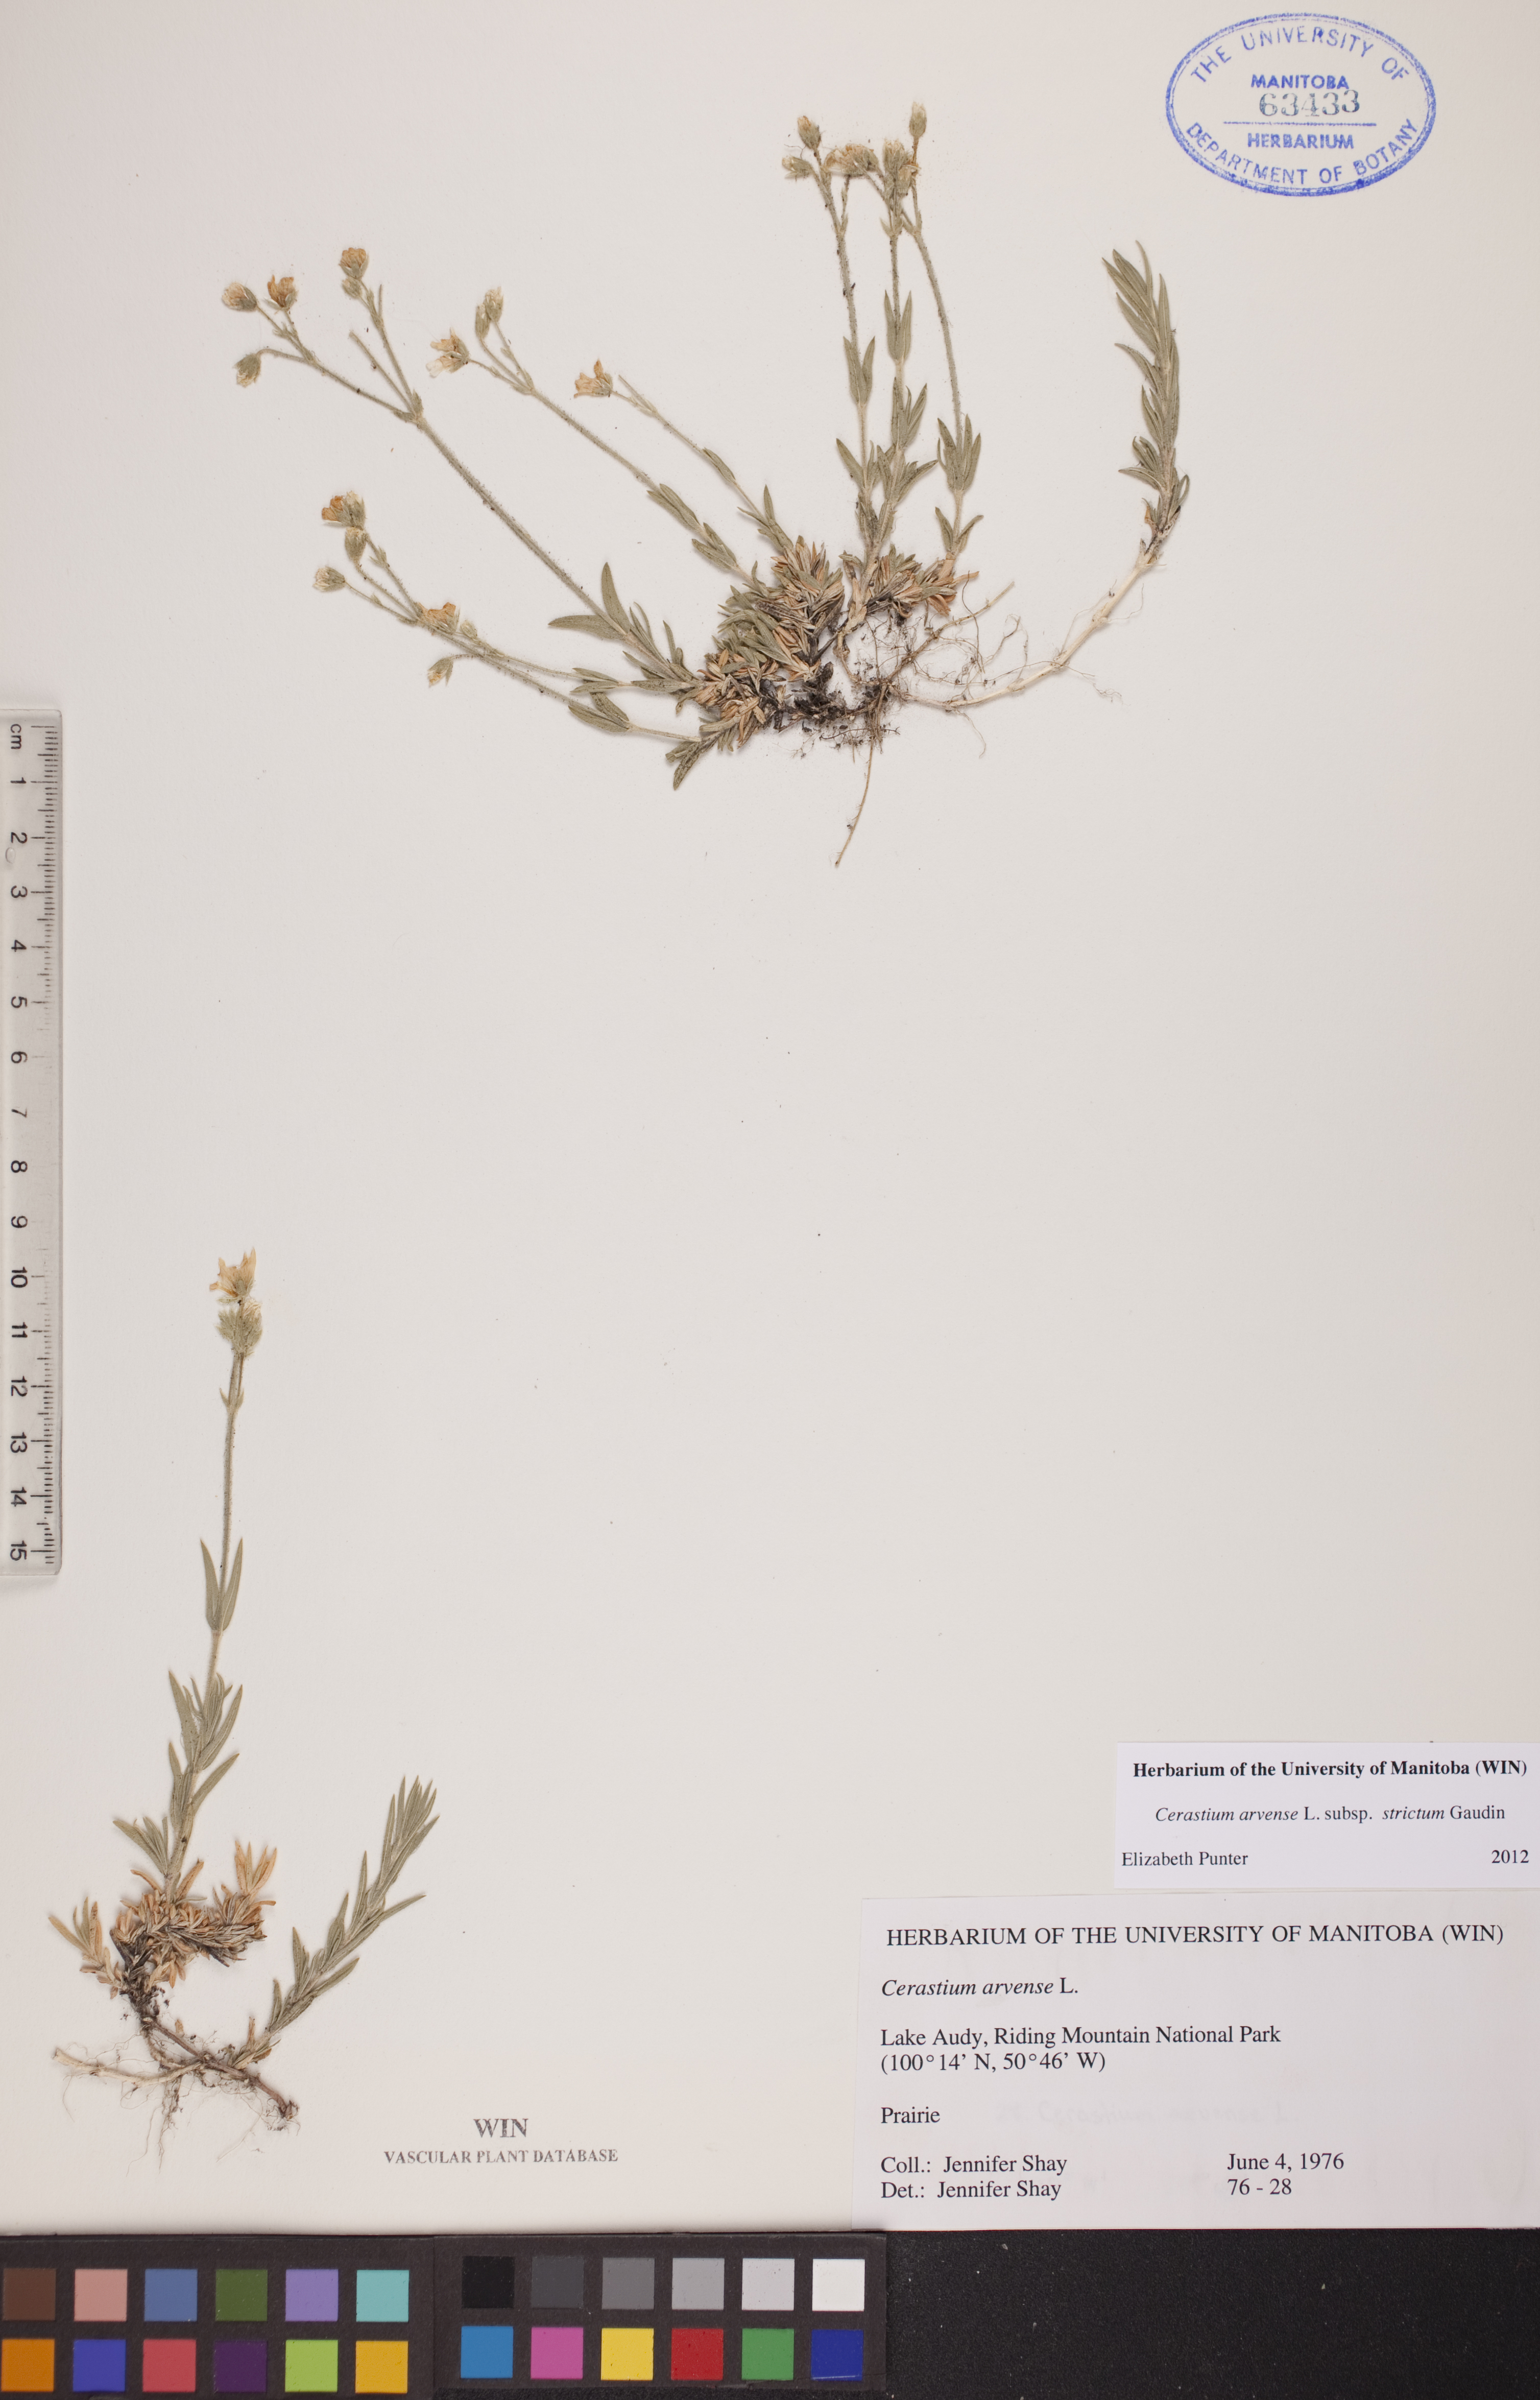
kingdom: Plantae
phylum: Tracheophyta
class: Magnoliopsida
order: Caryophyllales
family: Caryophyllaceae
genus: Cerastium
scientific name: Cerastium elongatum
